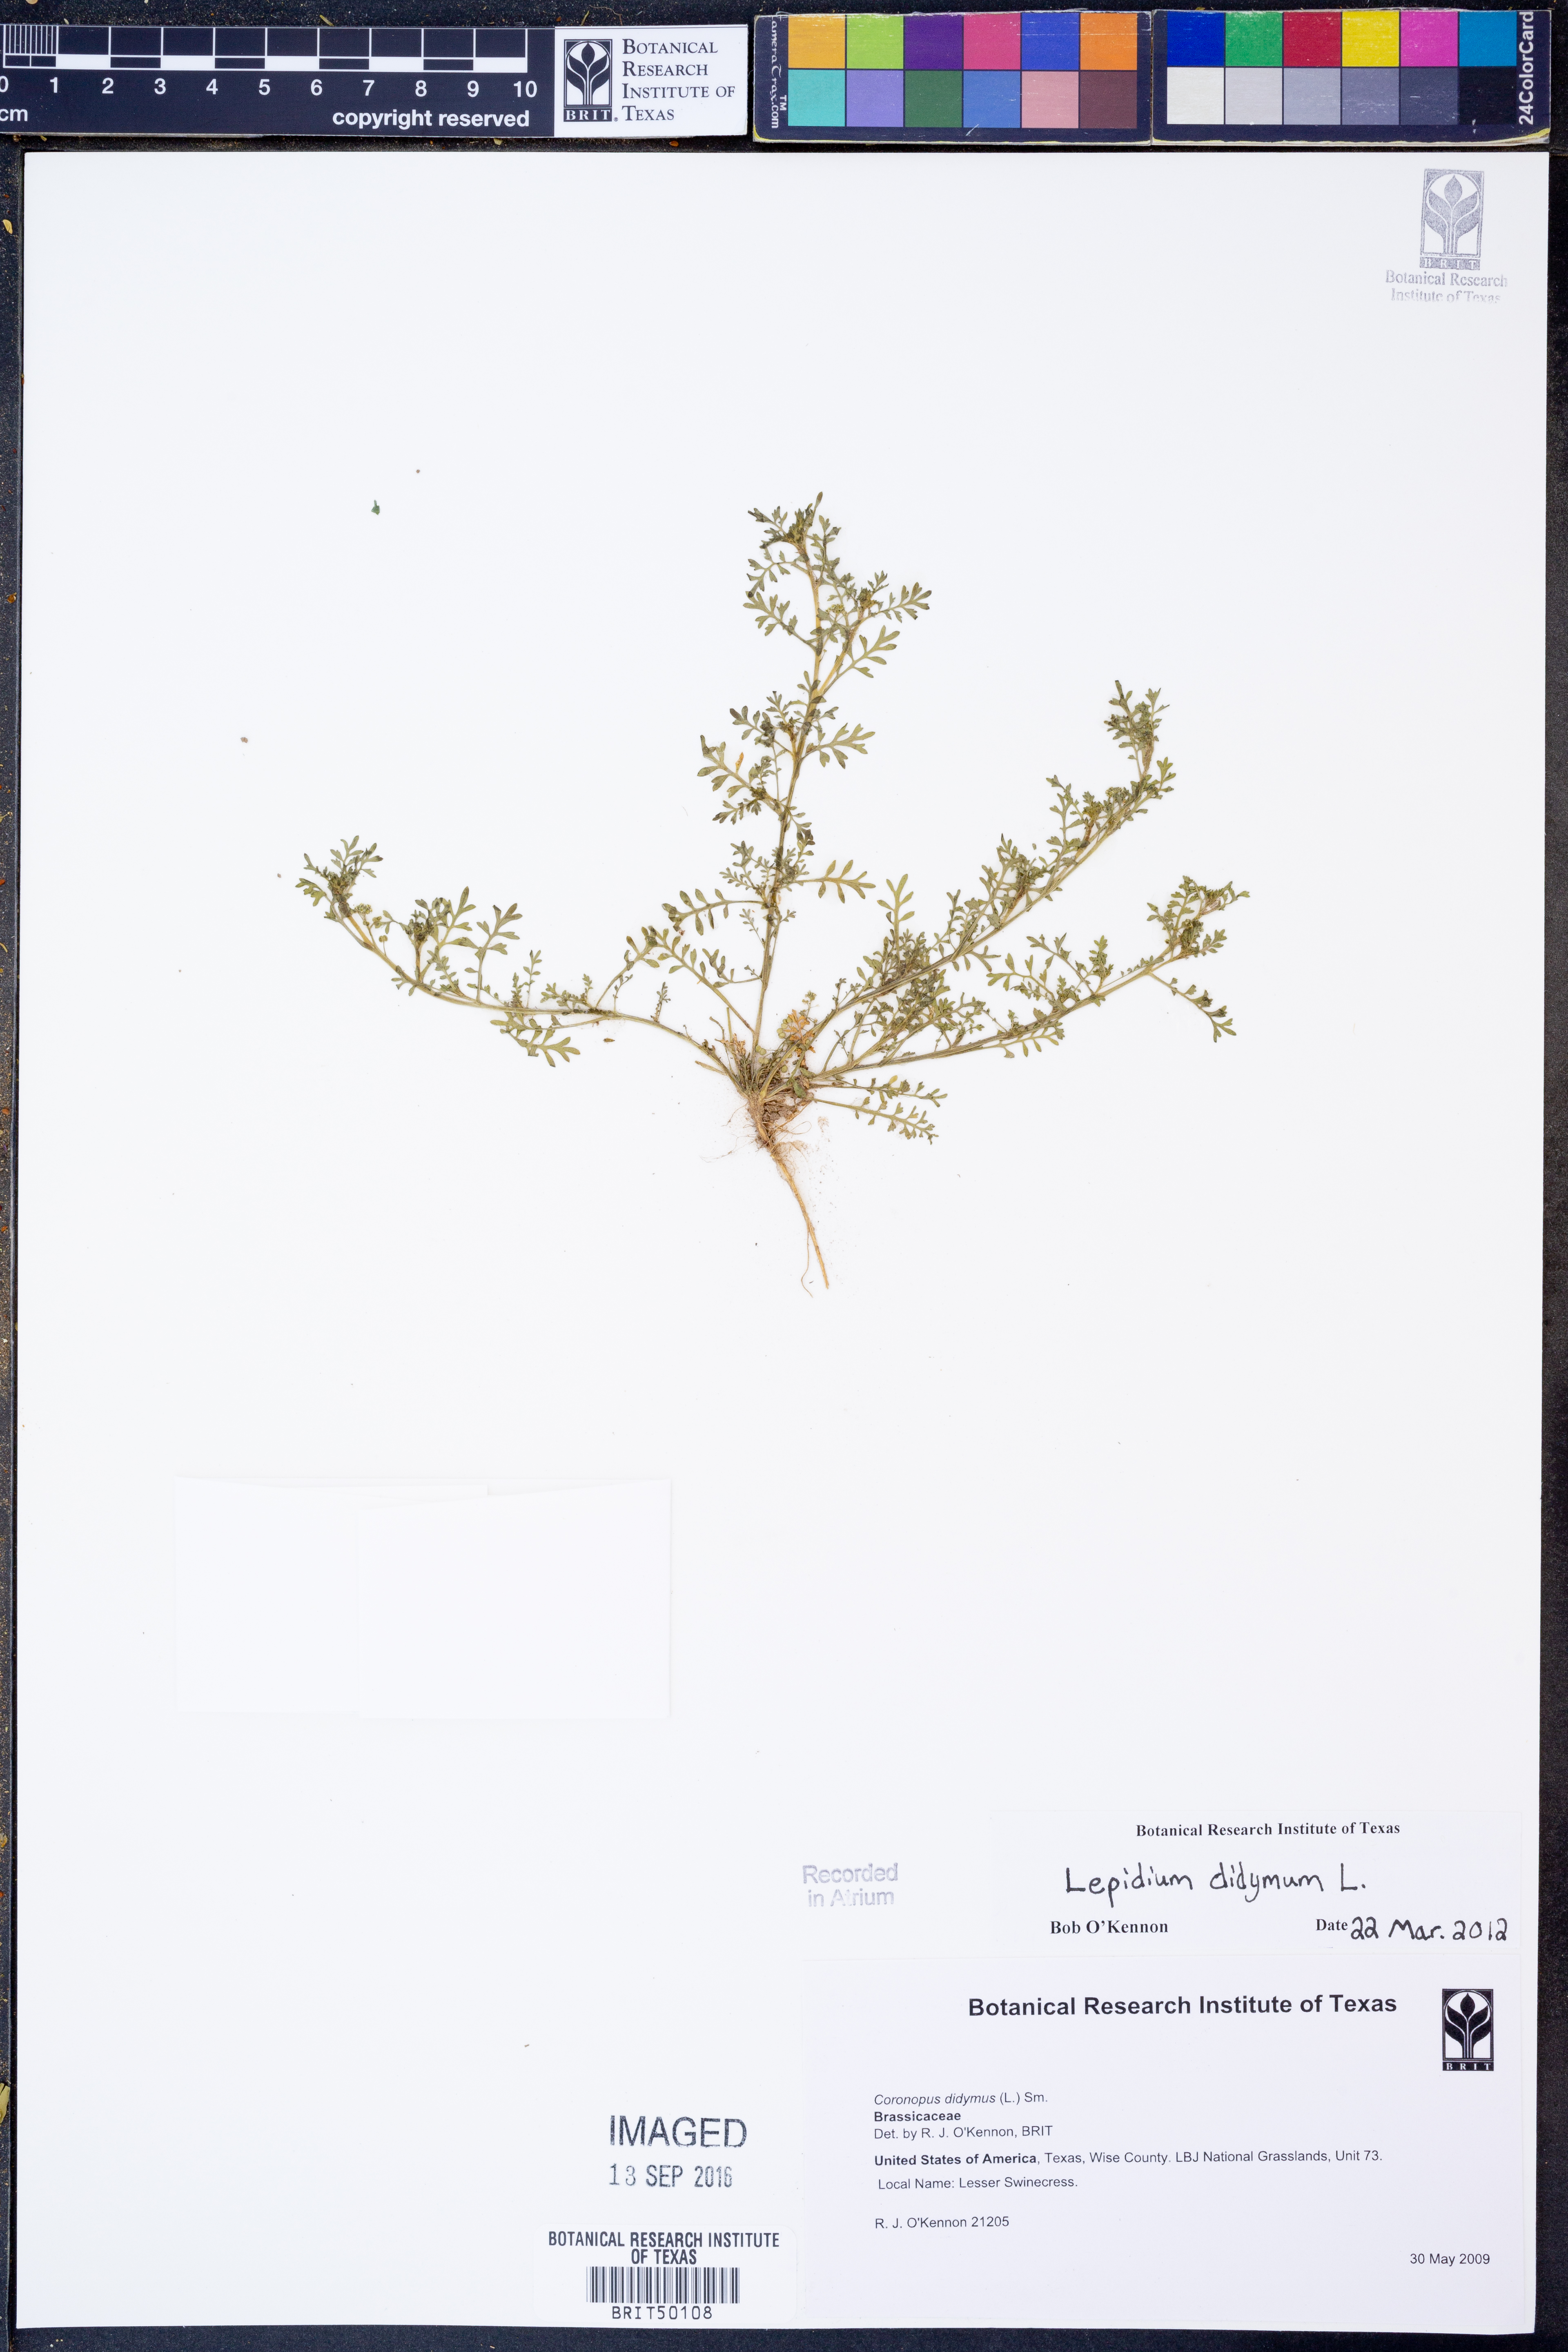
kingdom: Plantae
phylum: Tracheophyta
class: Magnoliopsida
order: Brassicales
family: Brassicaceae
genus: Lepidium
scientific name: Lepidium didymum
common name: Lesser swinecress
